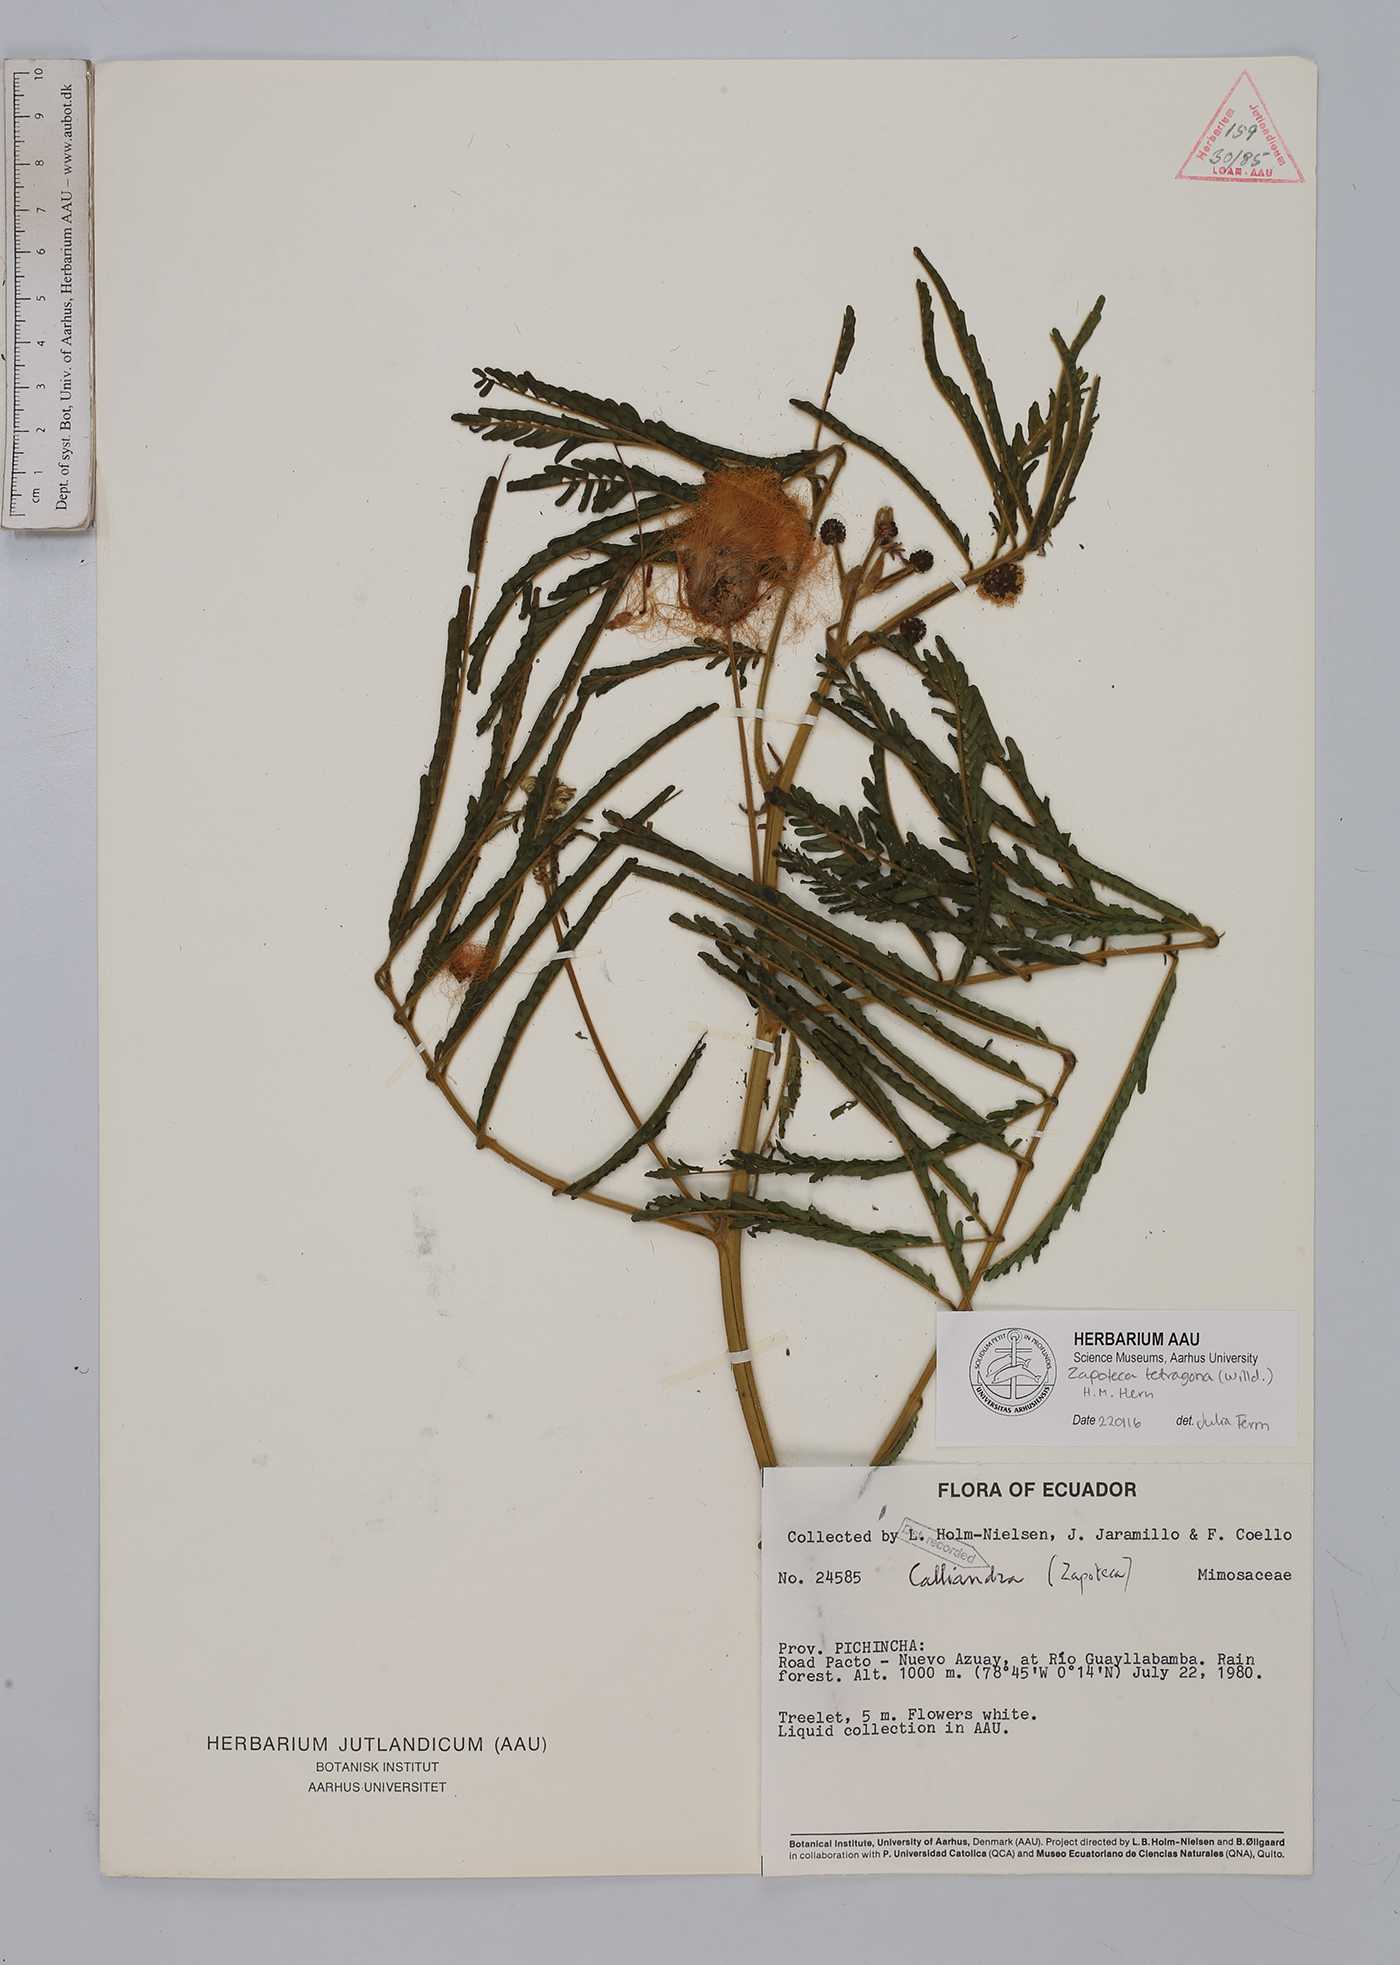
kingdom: Plantae
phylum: Tracheophyta
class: Magnoliopsida
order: Fabales
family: Fabaceae
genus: Zapoteca
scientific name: Zapoteca tetragona
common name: White calliandra
